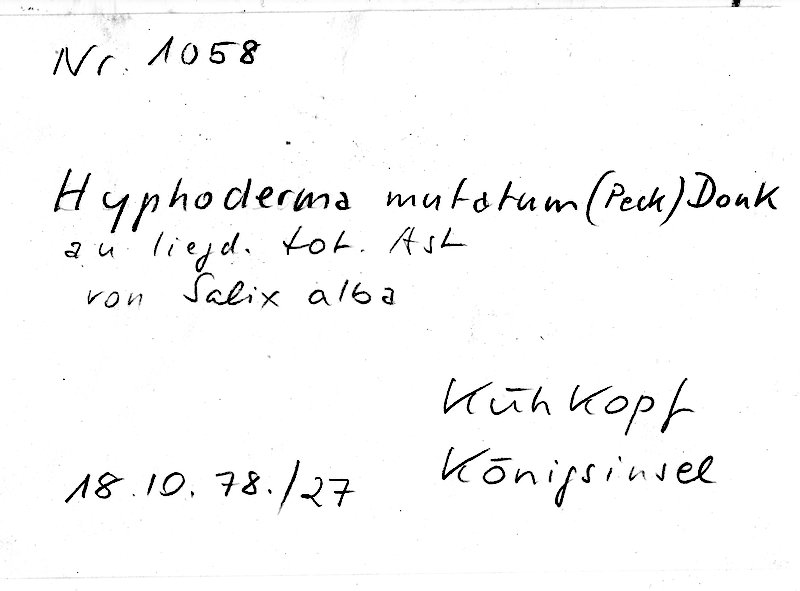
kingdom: Plantae
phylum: Tracheophyta
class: Magnoliopsida
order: Malpighiales
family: Salicaceae
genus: Salix
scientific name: Salix alba
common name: White willow
